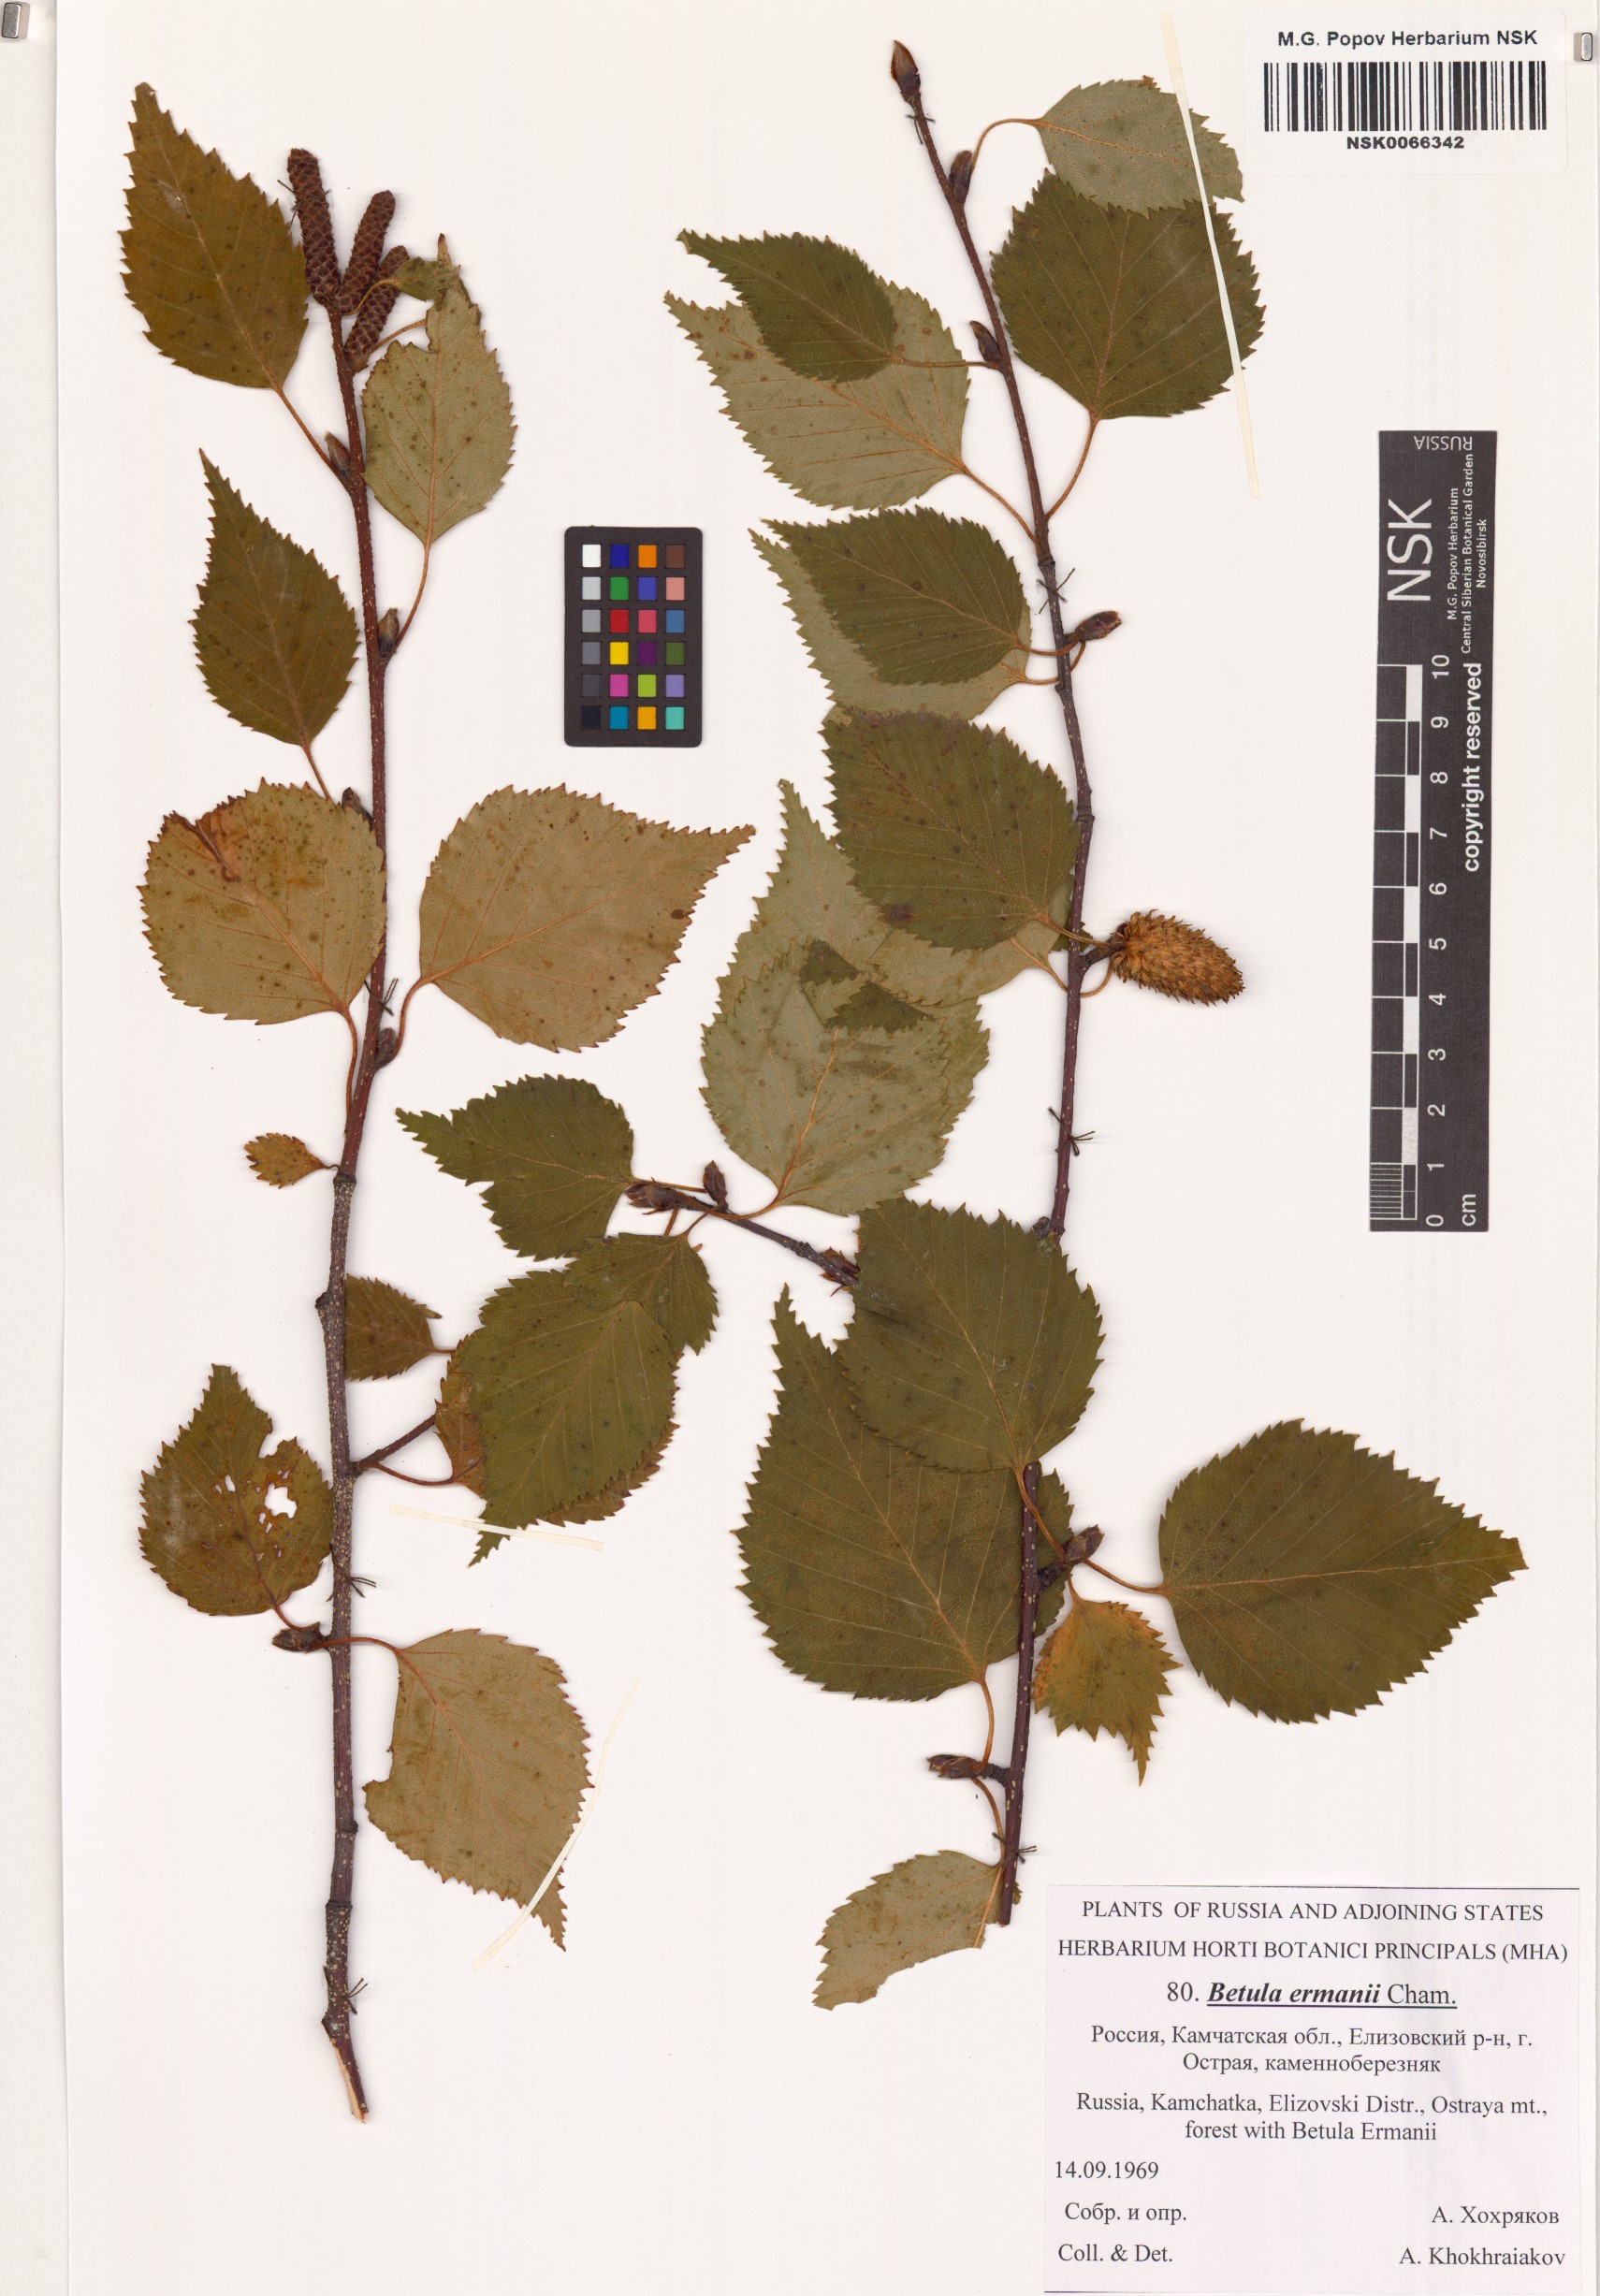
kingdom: Plantae
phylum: Tracheophyta
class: Magnoliopsida
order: Fagales
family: Betulaceae
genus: Betula
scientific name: Betula ermanii
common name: Erman's birch
